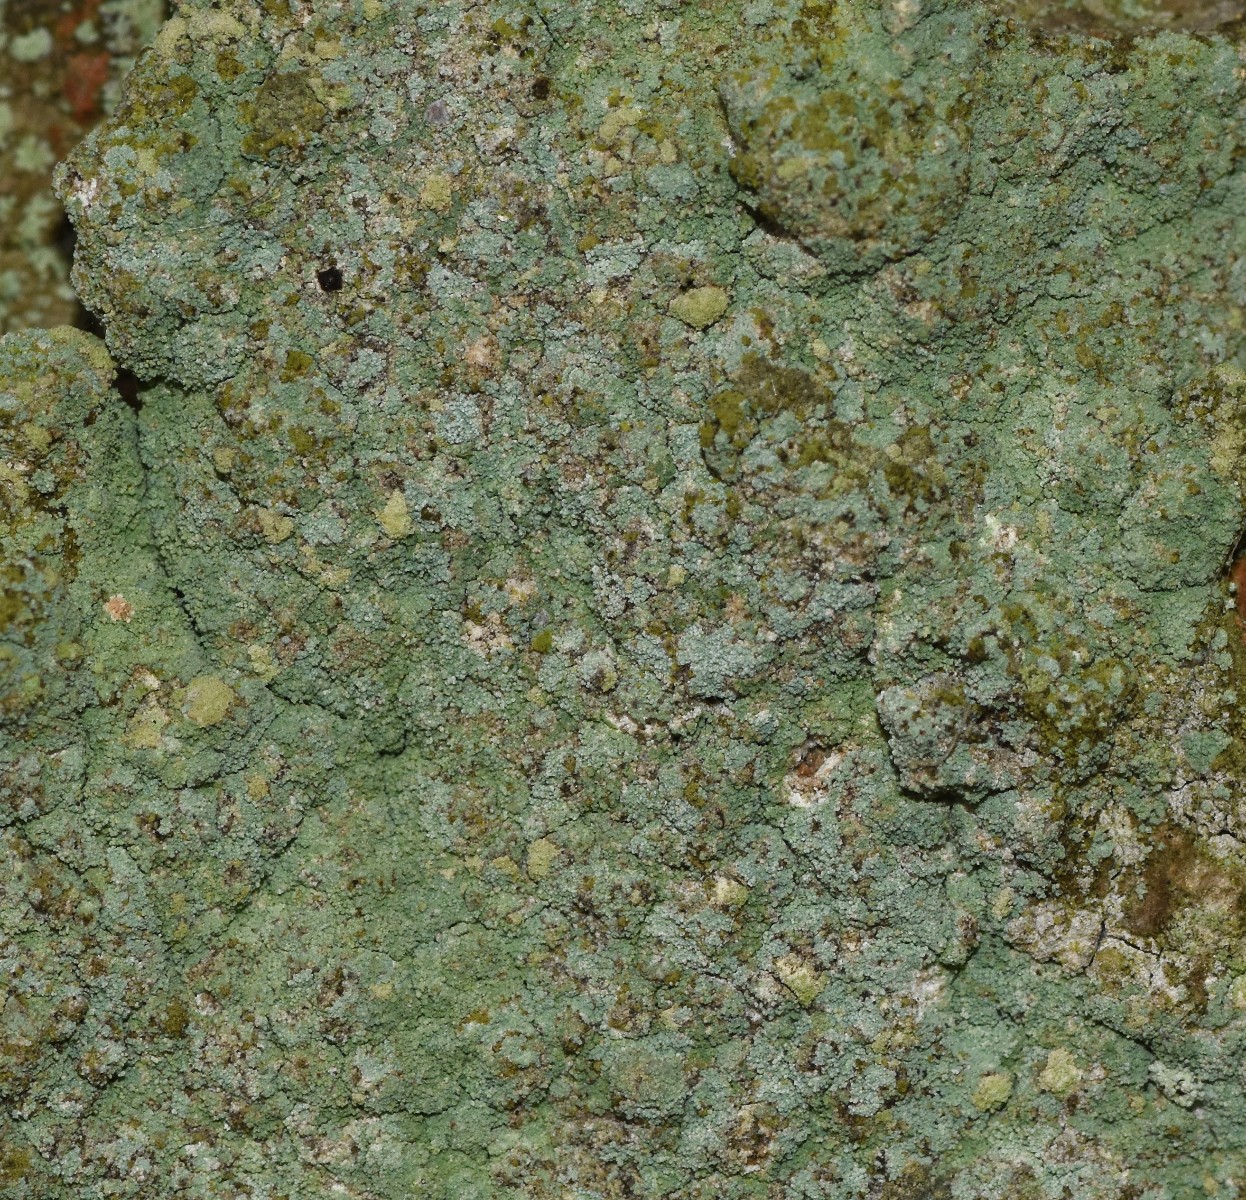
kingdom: Fungi
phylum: Ascomycota
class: Lecanoromycetes
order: Lecanorales
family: Stereocaulaceae
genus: Lepraria
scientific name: Lepraria
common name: støvlav
